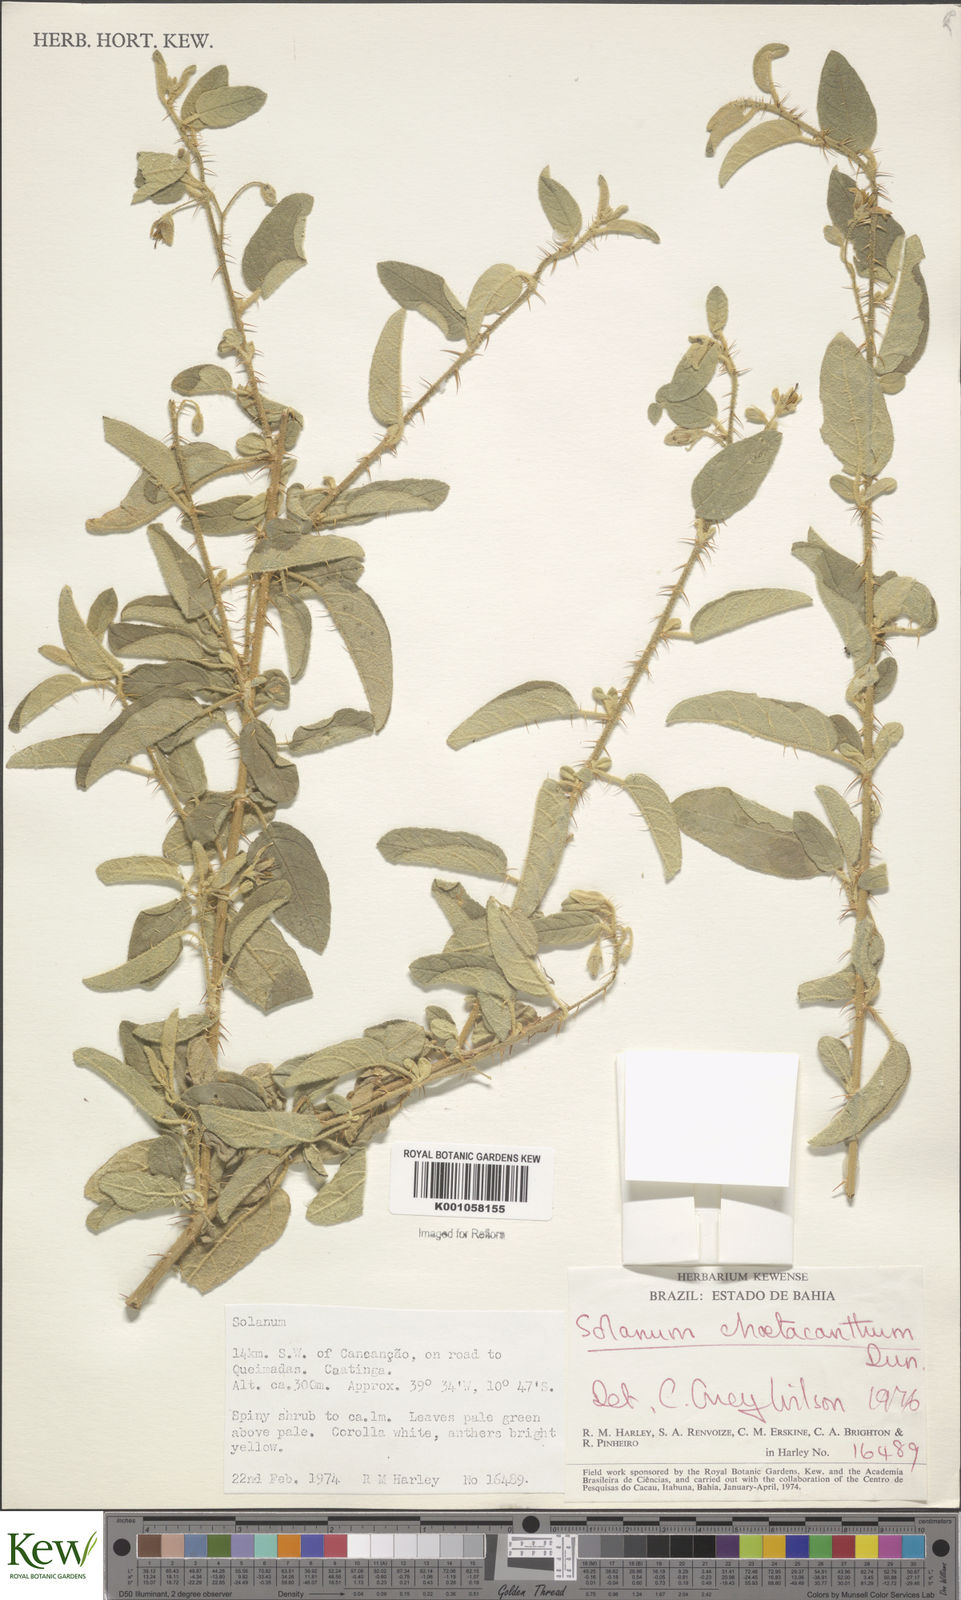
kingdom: Plantae
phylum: Tracheophyta
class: Magnoliopsida
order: Solanales
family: Solanaceae
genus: Solanum
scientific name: Solanum gardneri
